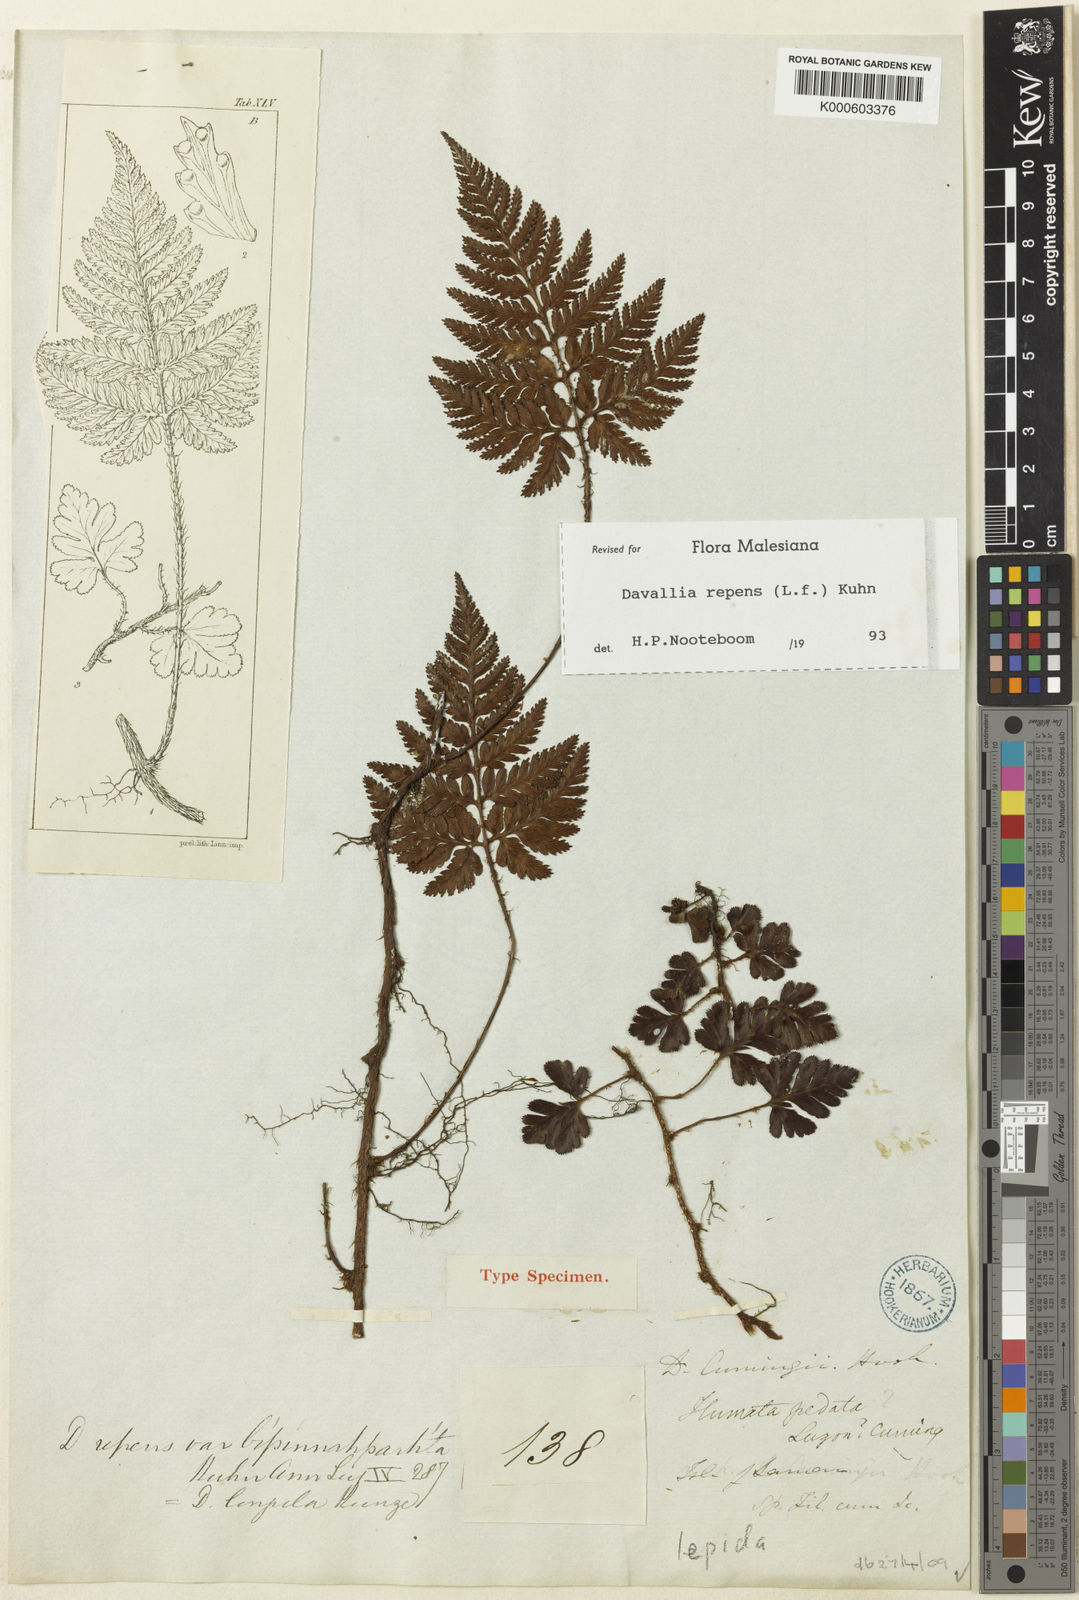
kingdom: Plantae
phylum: Tracheophyta
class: Polypodiopsida
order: Polypodiales
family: Davalliaceae
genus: Davallia
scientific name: Davallia graeffei
